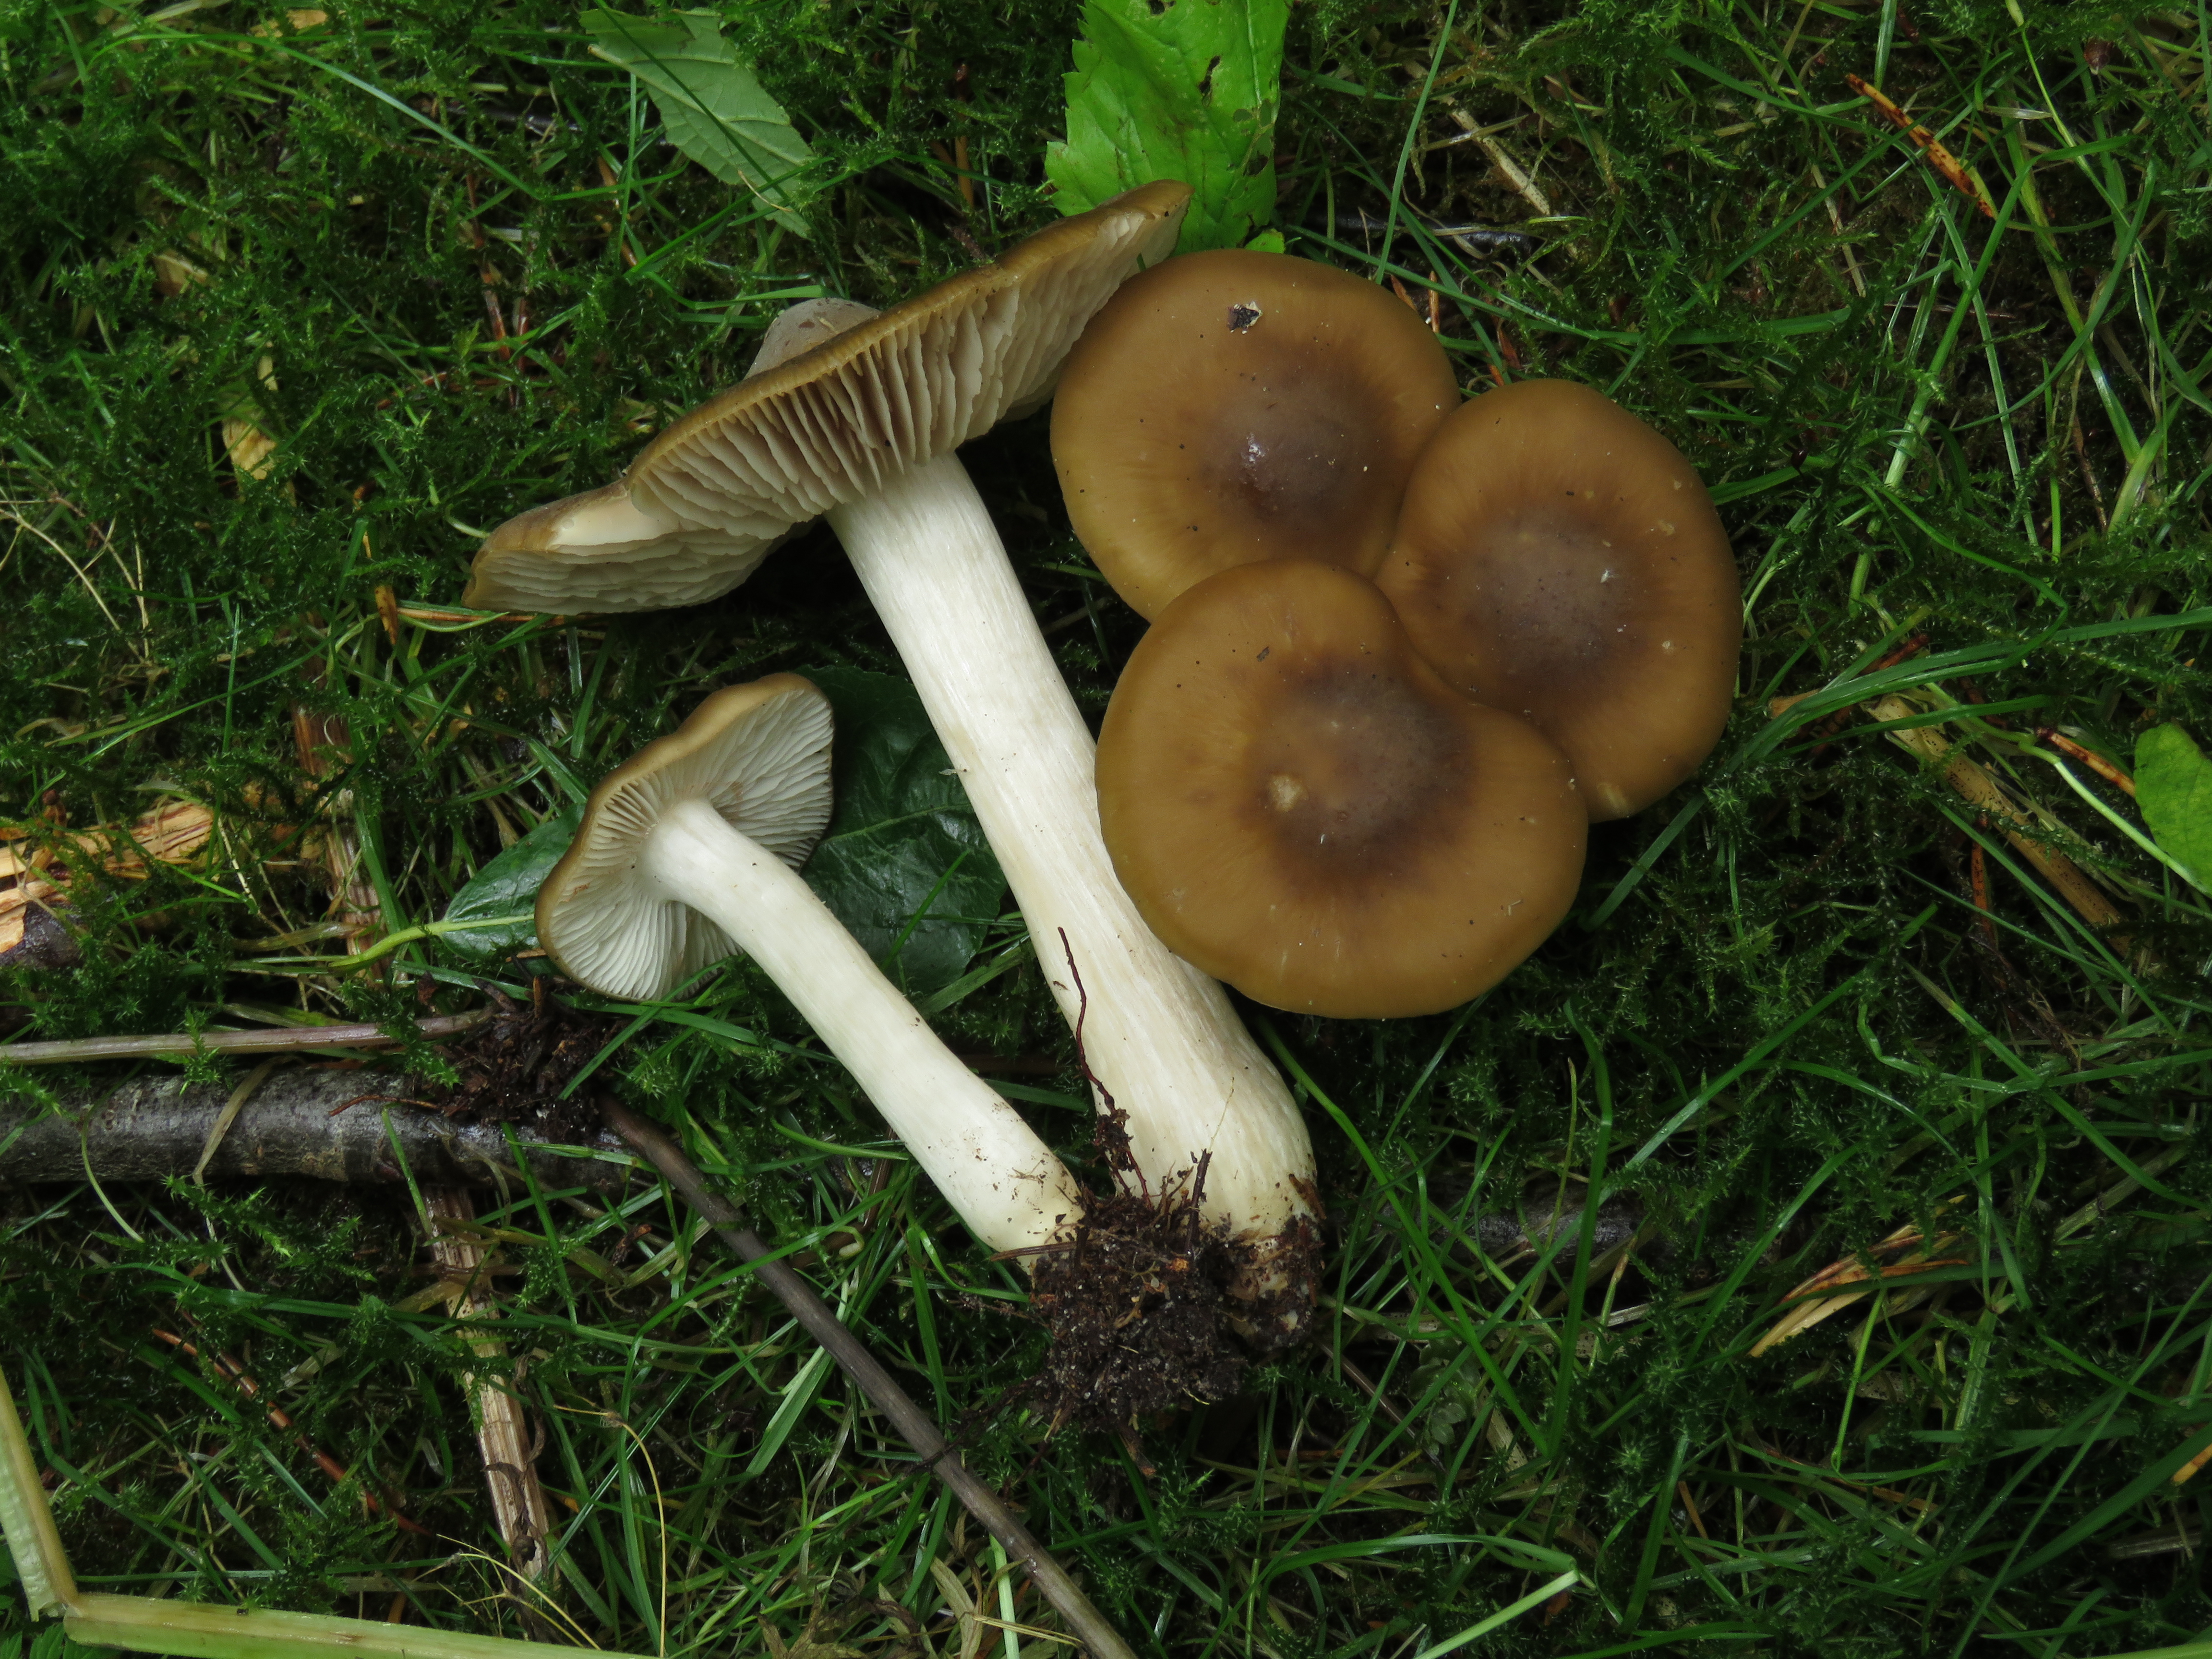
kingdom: Fungi
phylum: Basidiomycota
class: Agaricomycetes
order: Agaricales
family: Entolomataceae
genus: Entoloma
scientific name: Entoloma
